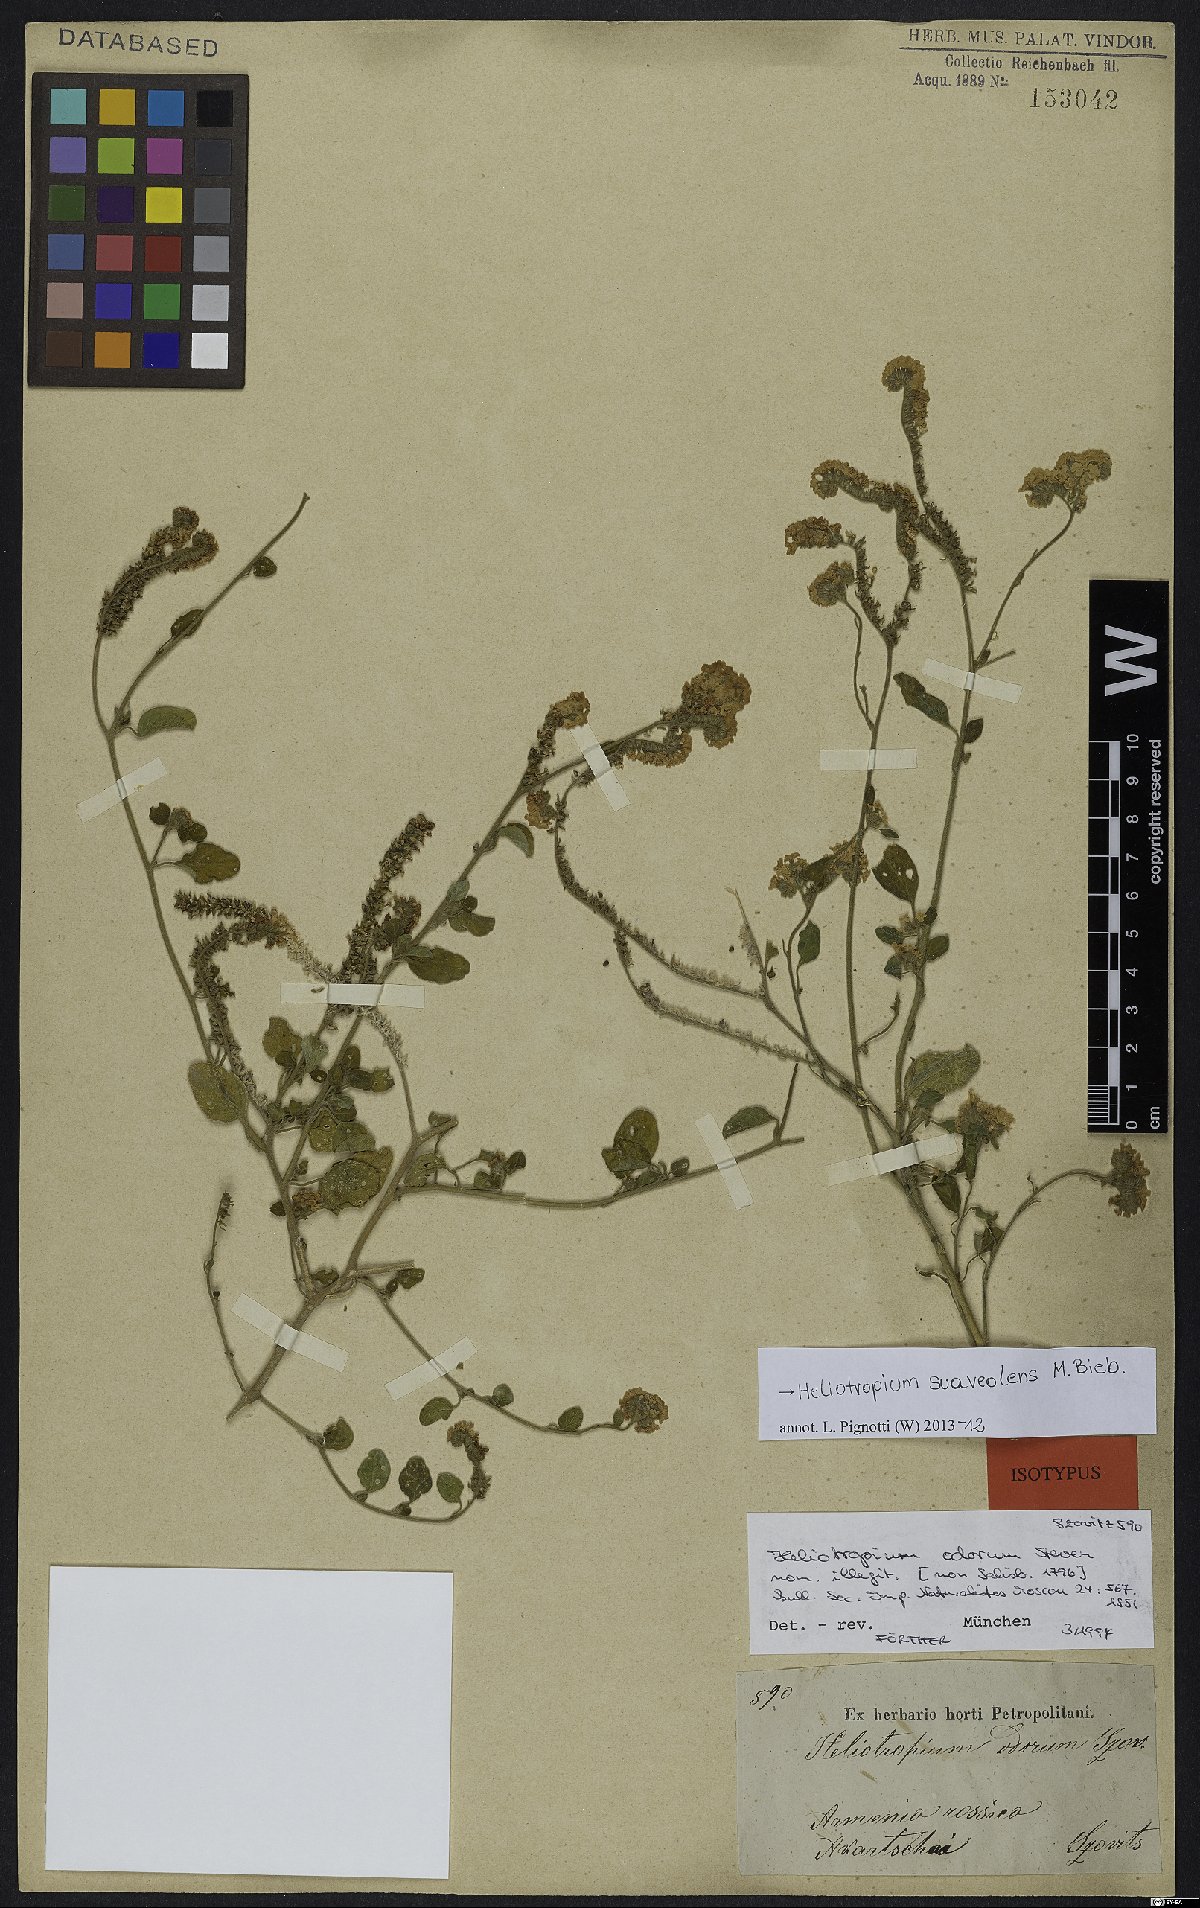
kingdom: Plantae
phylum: Tracheophyta
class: Magnoliopsida
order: Boraginales
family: Heliotropiaceae
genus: Heliotropium
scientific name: Heliotropium suaveolens
